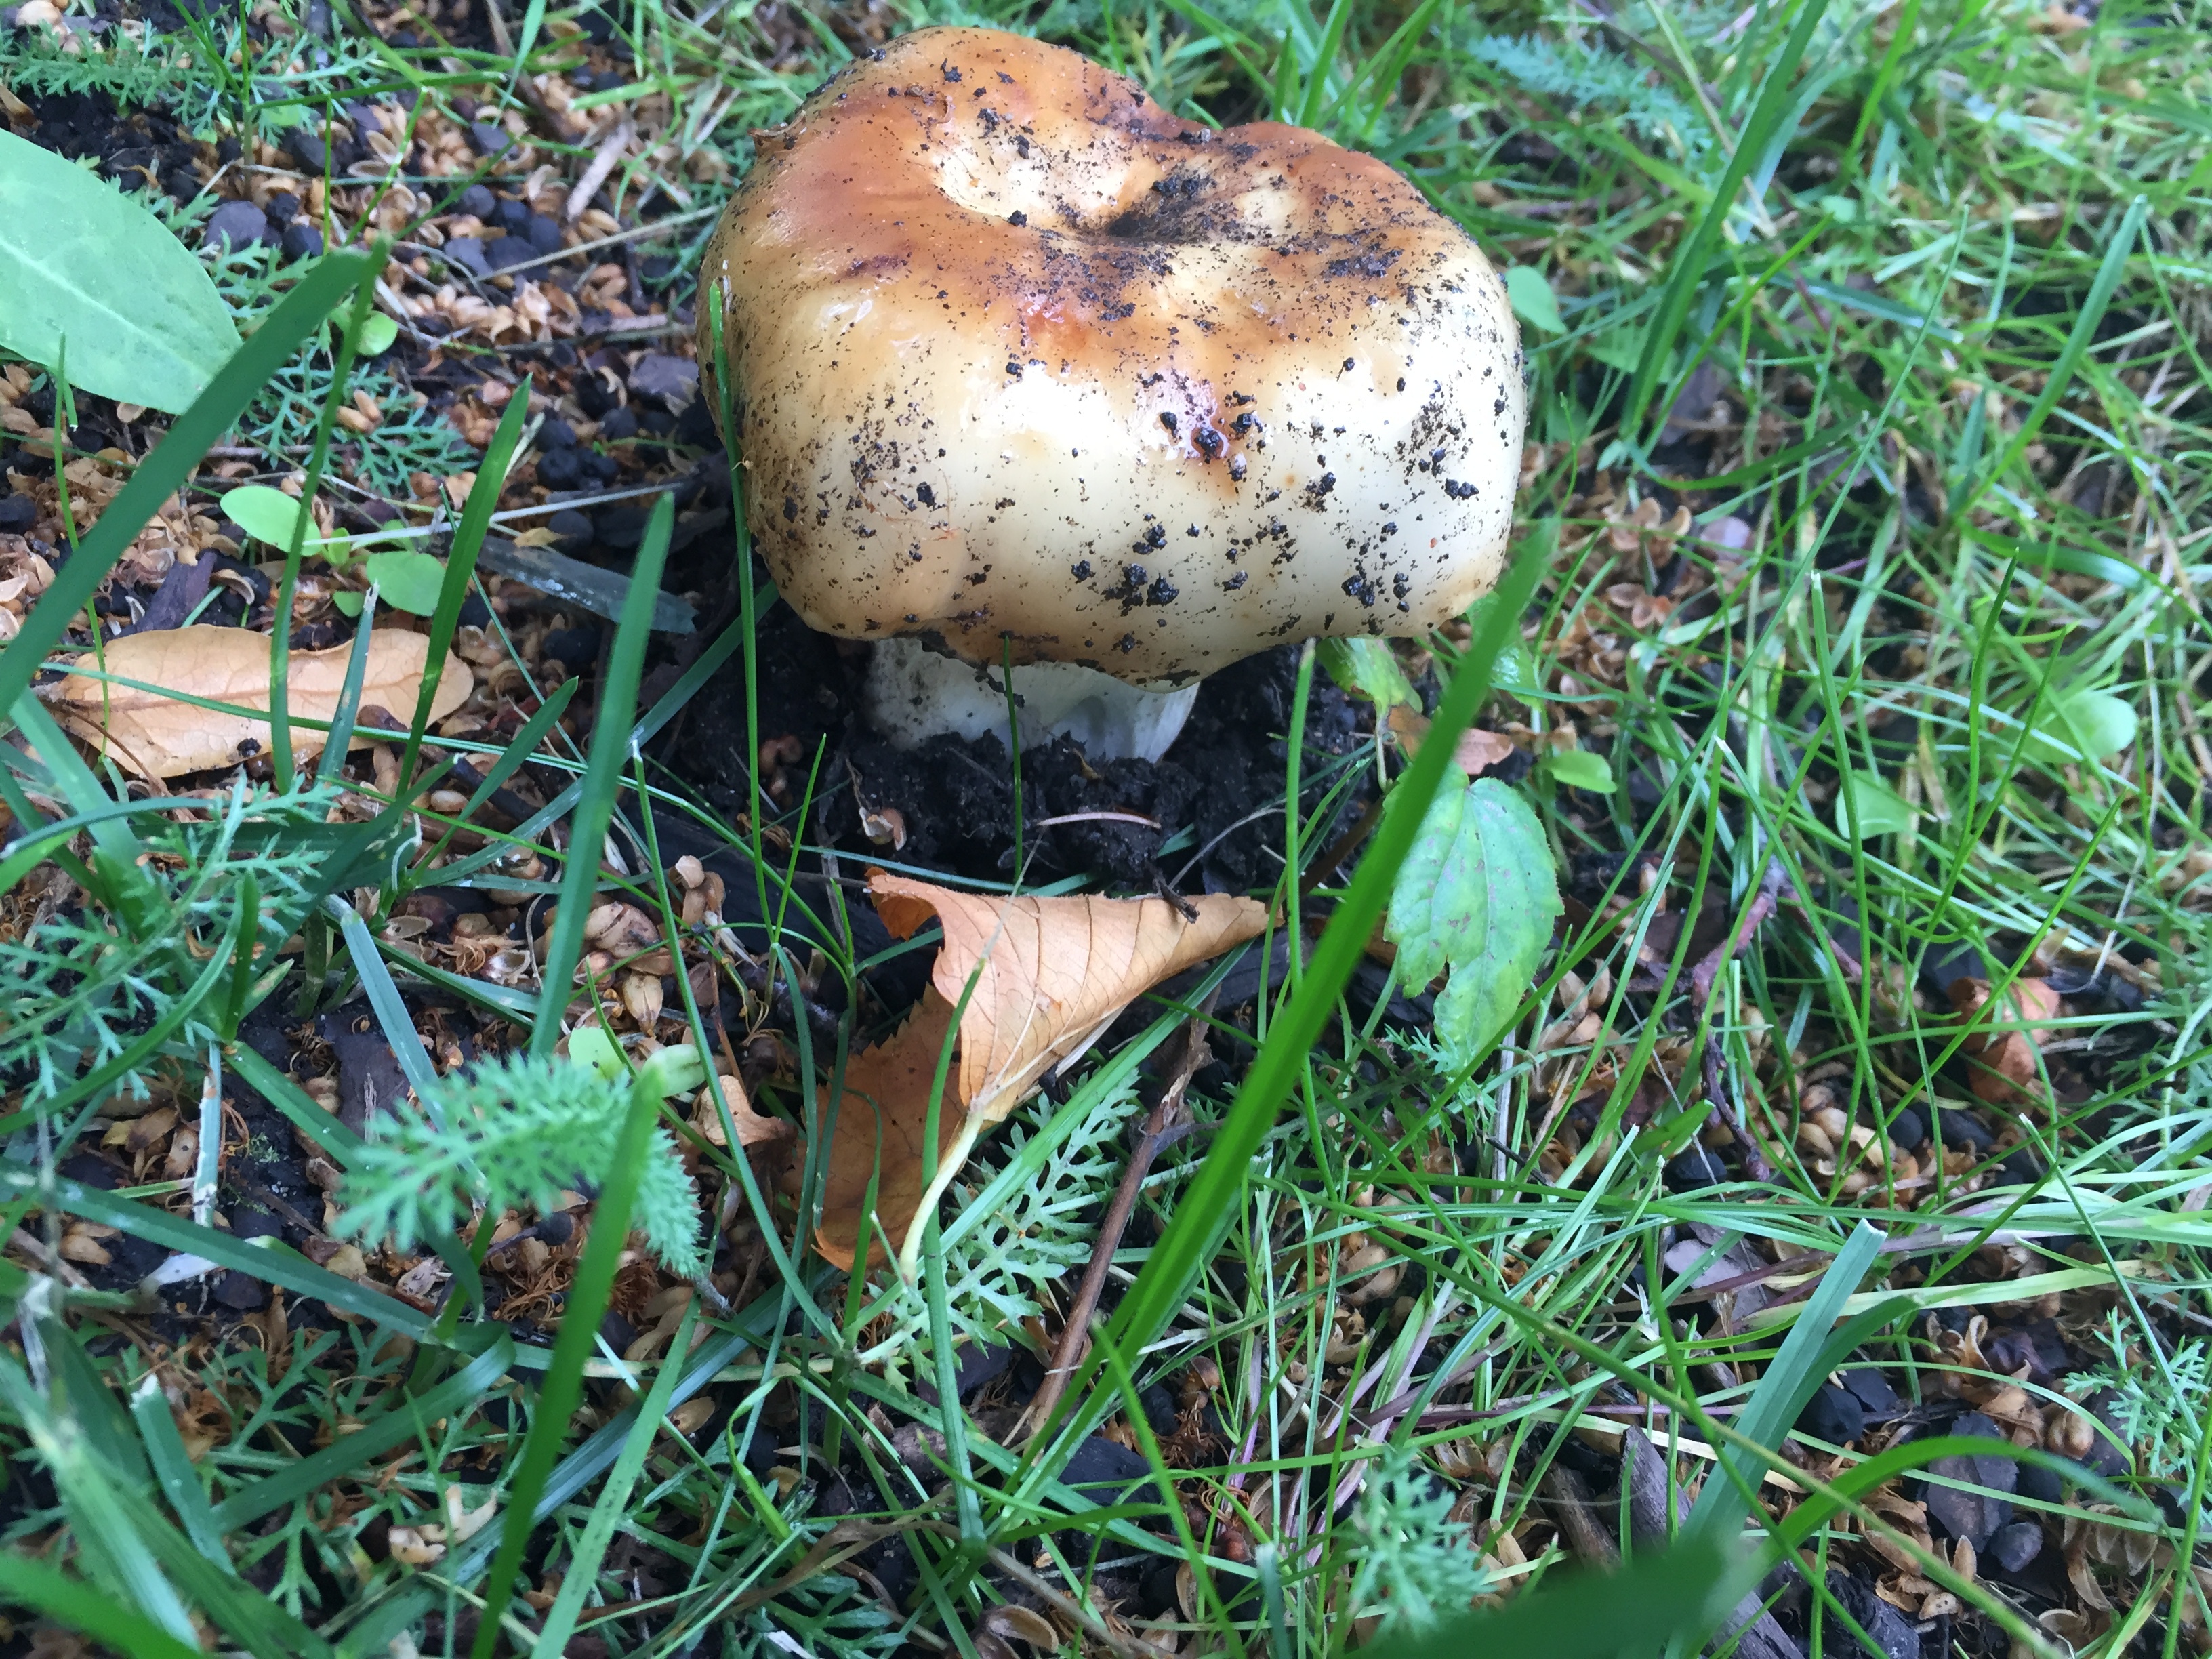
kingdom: Fungi
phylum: Basidiomycota
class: Agaricomycetes
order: Russulales
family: Russulaceae
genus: Russula
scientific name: Russula foetens
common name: Foetid russula
